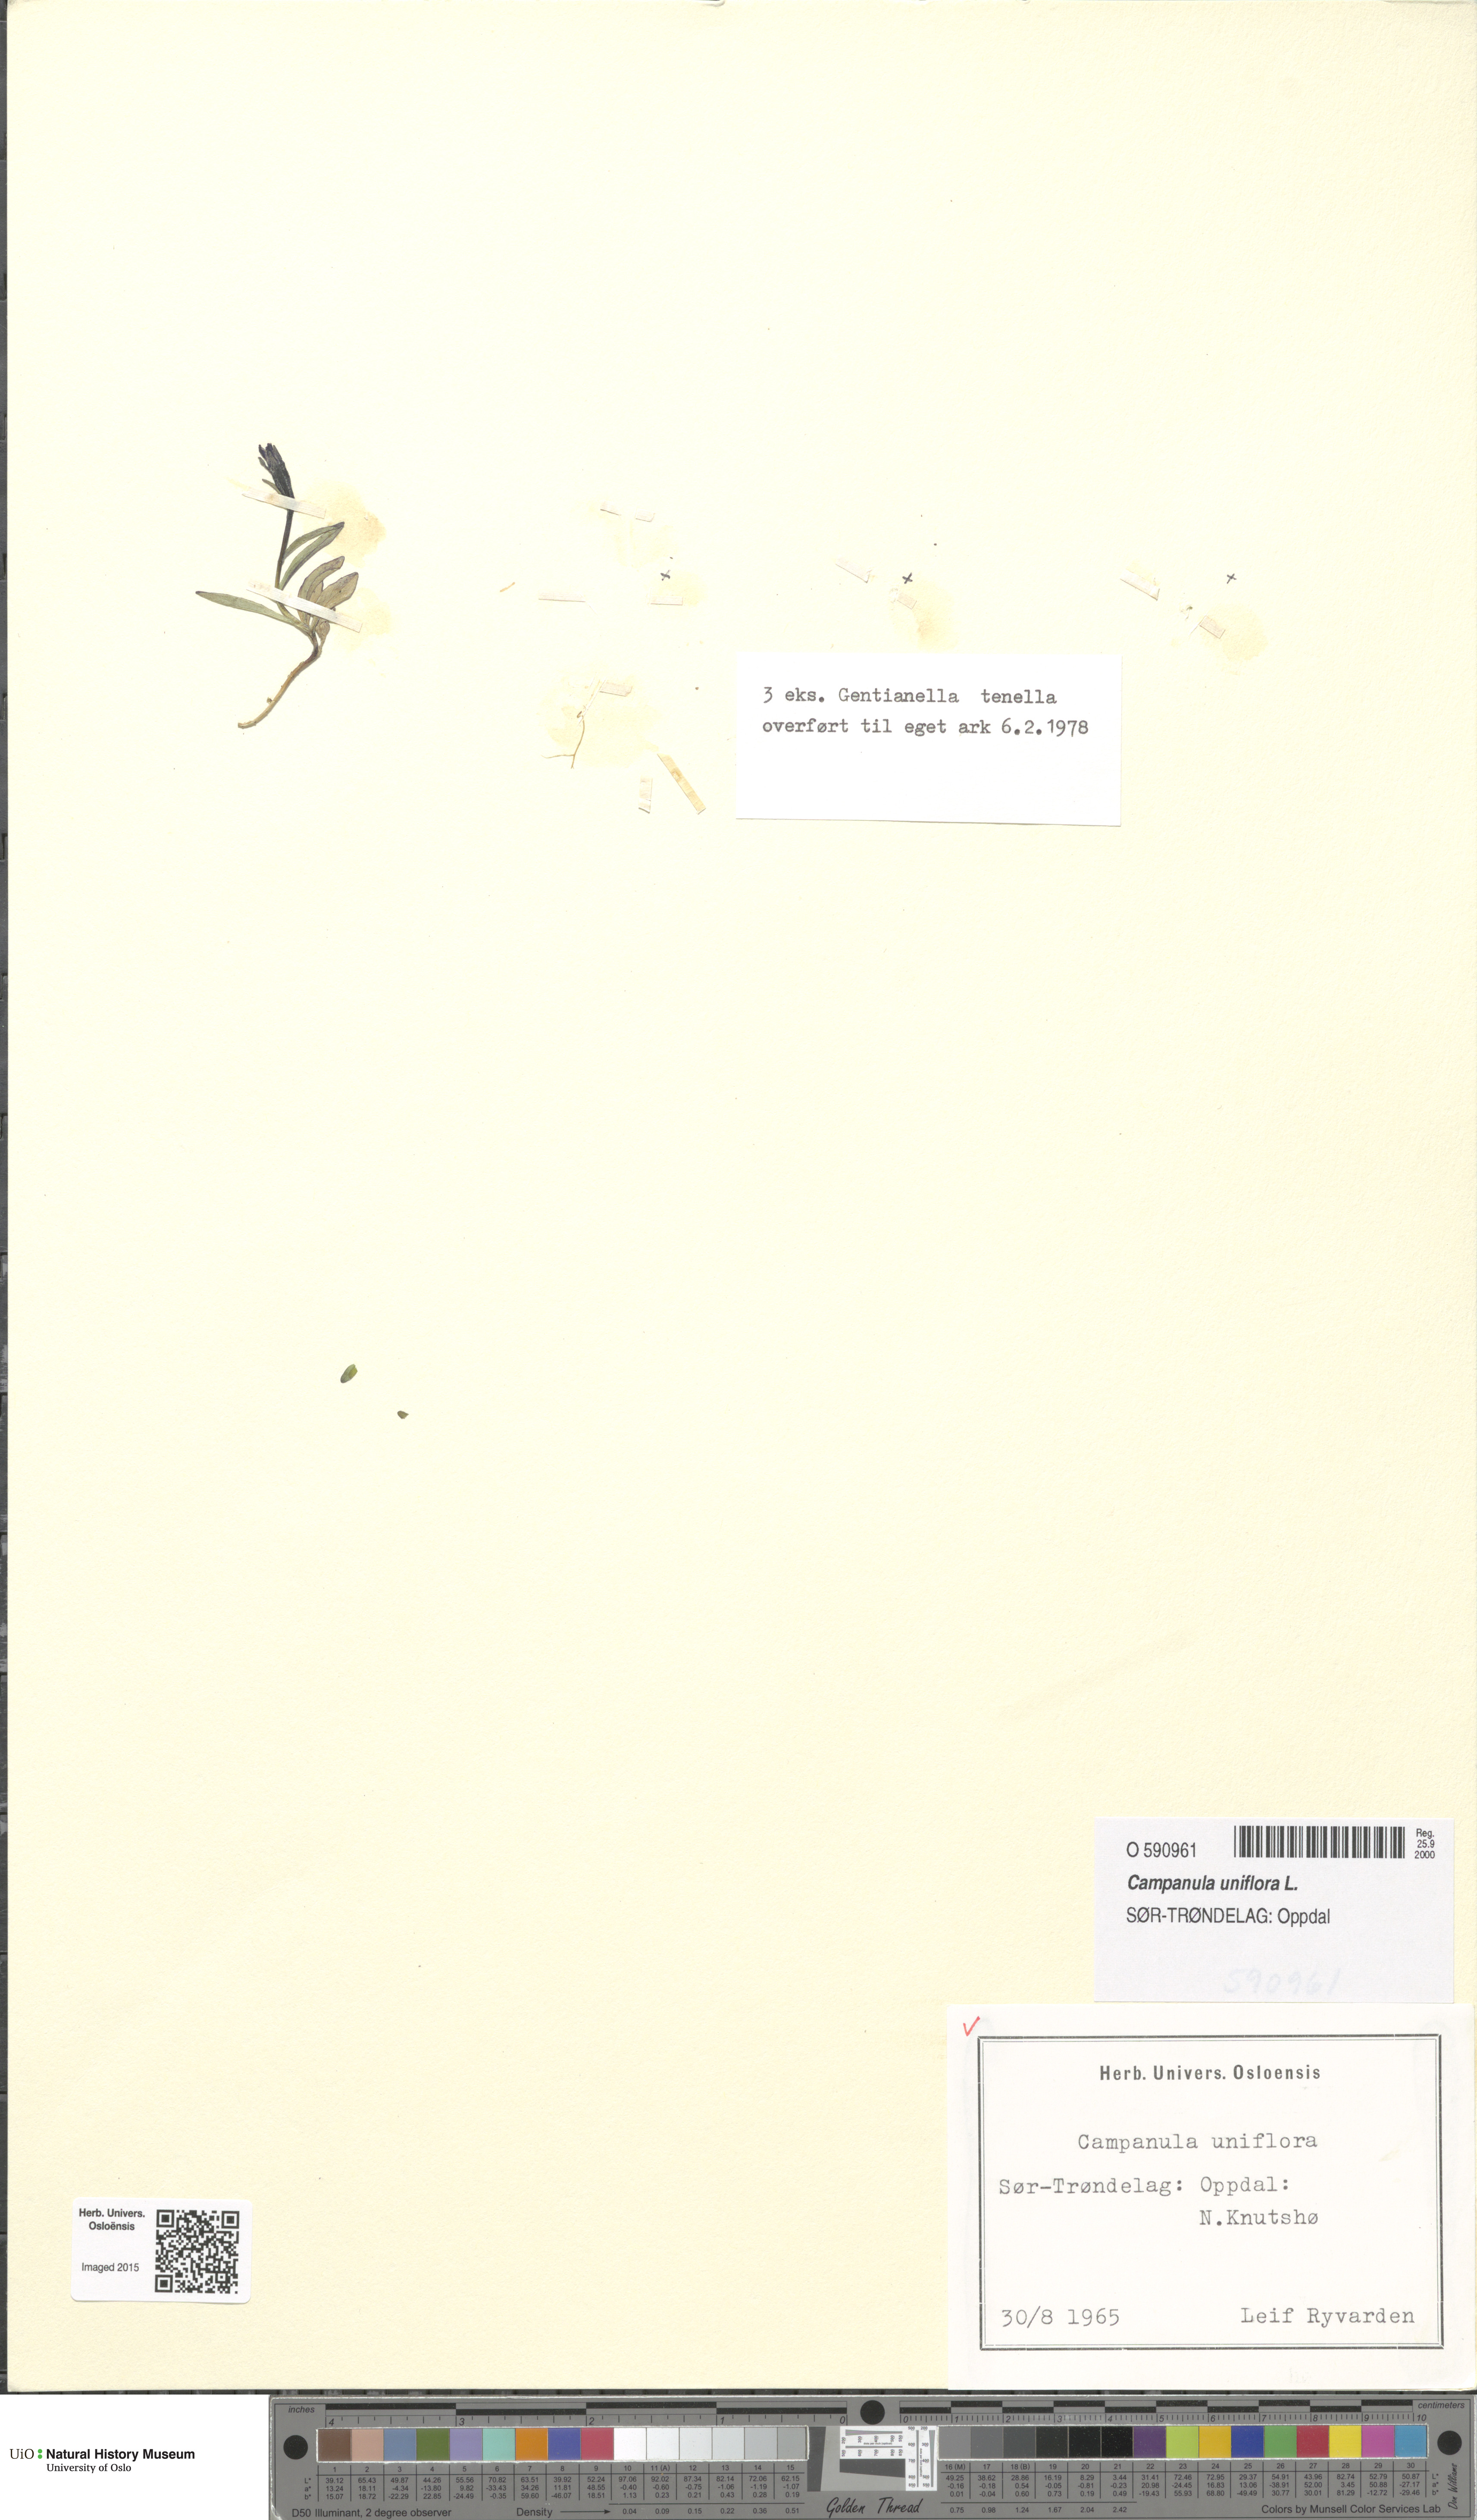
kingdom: Plantae
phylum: Tracheophyta
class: Magnoliopsida
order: Asterales
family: Campanulaceae
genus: Melanocalyx
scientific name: Melanocalyx uniflora
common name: Alpine harebell
